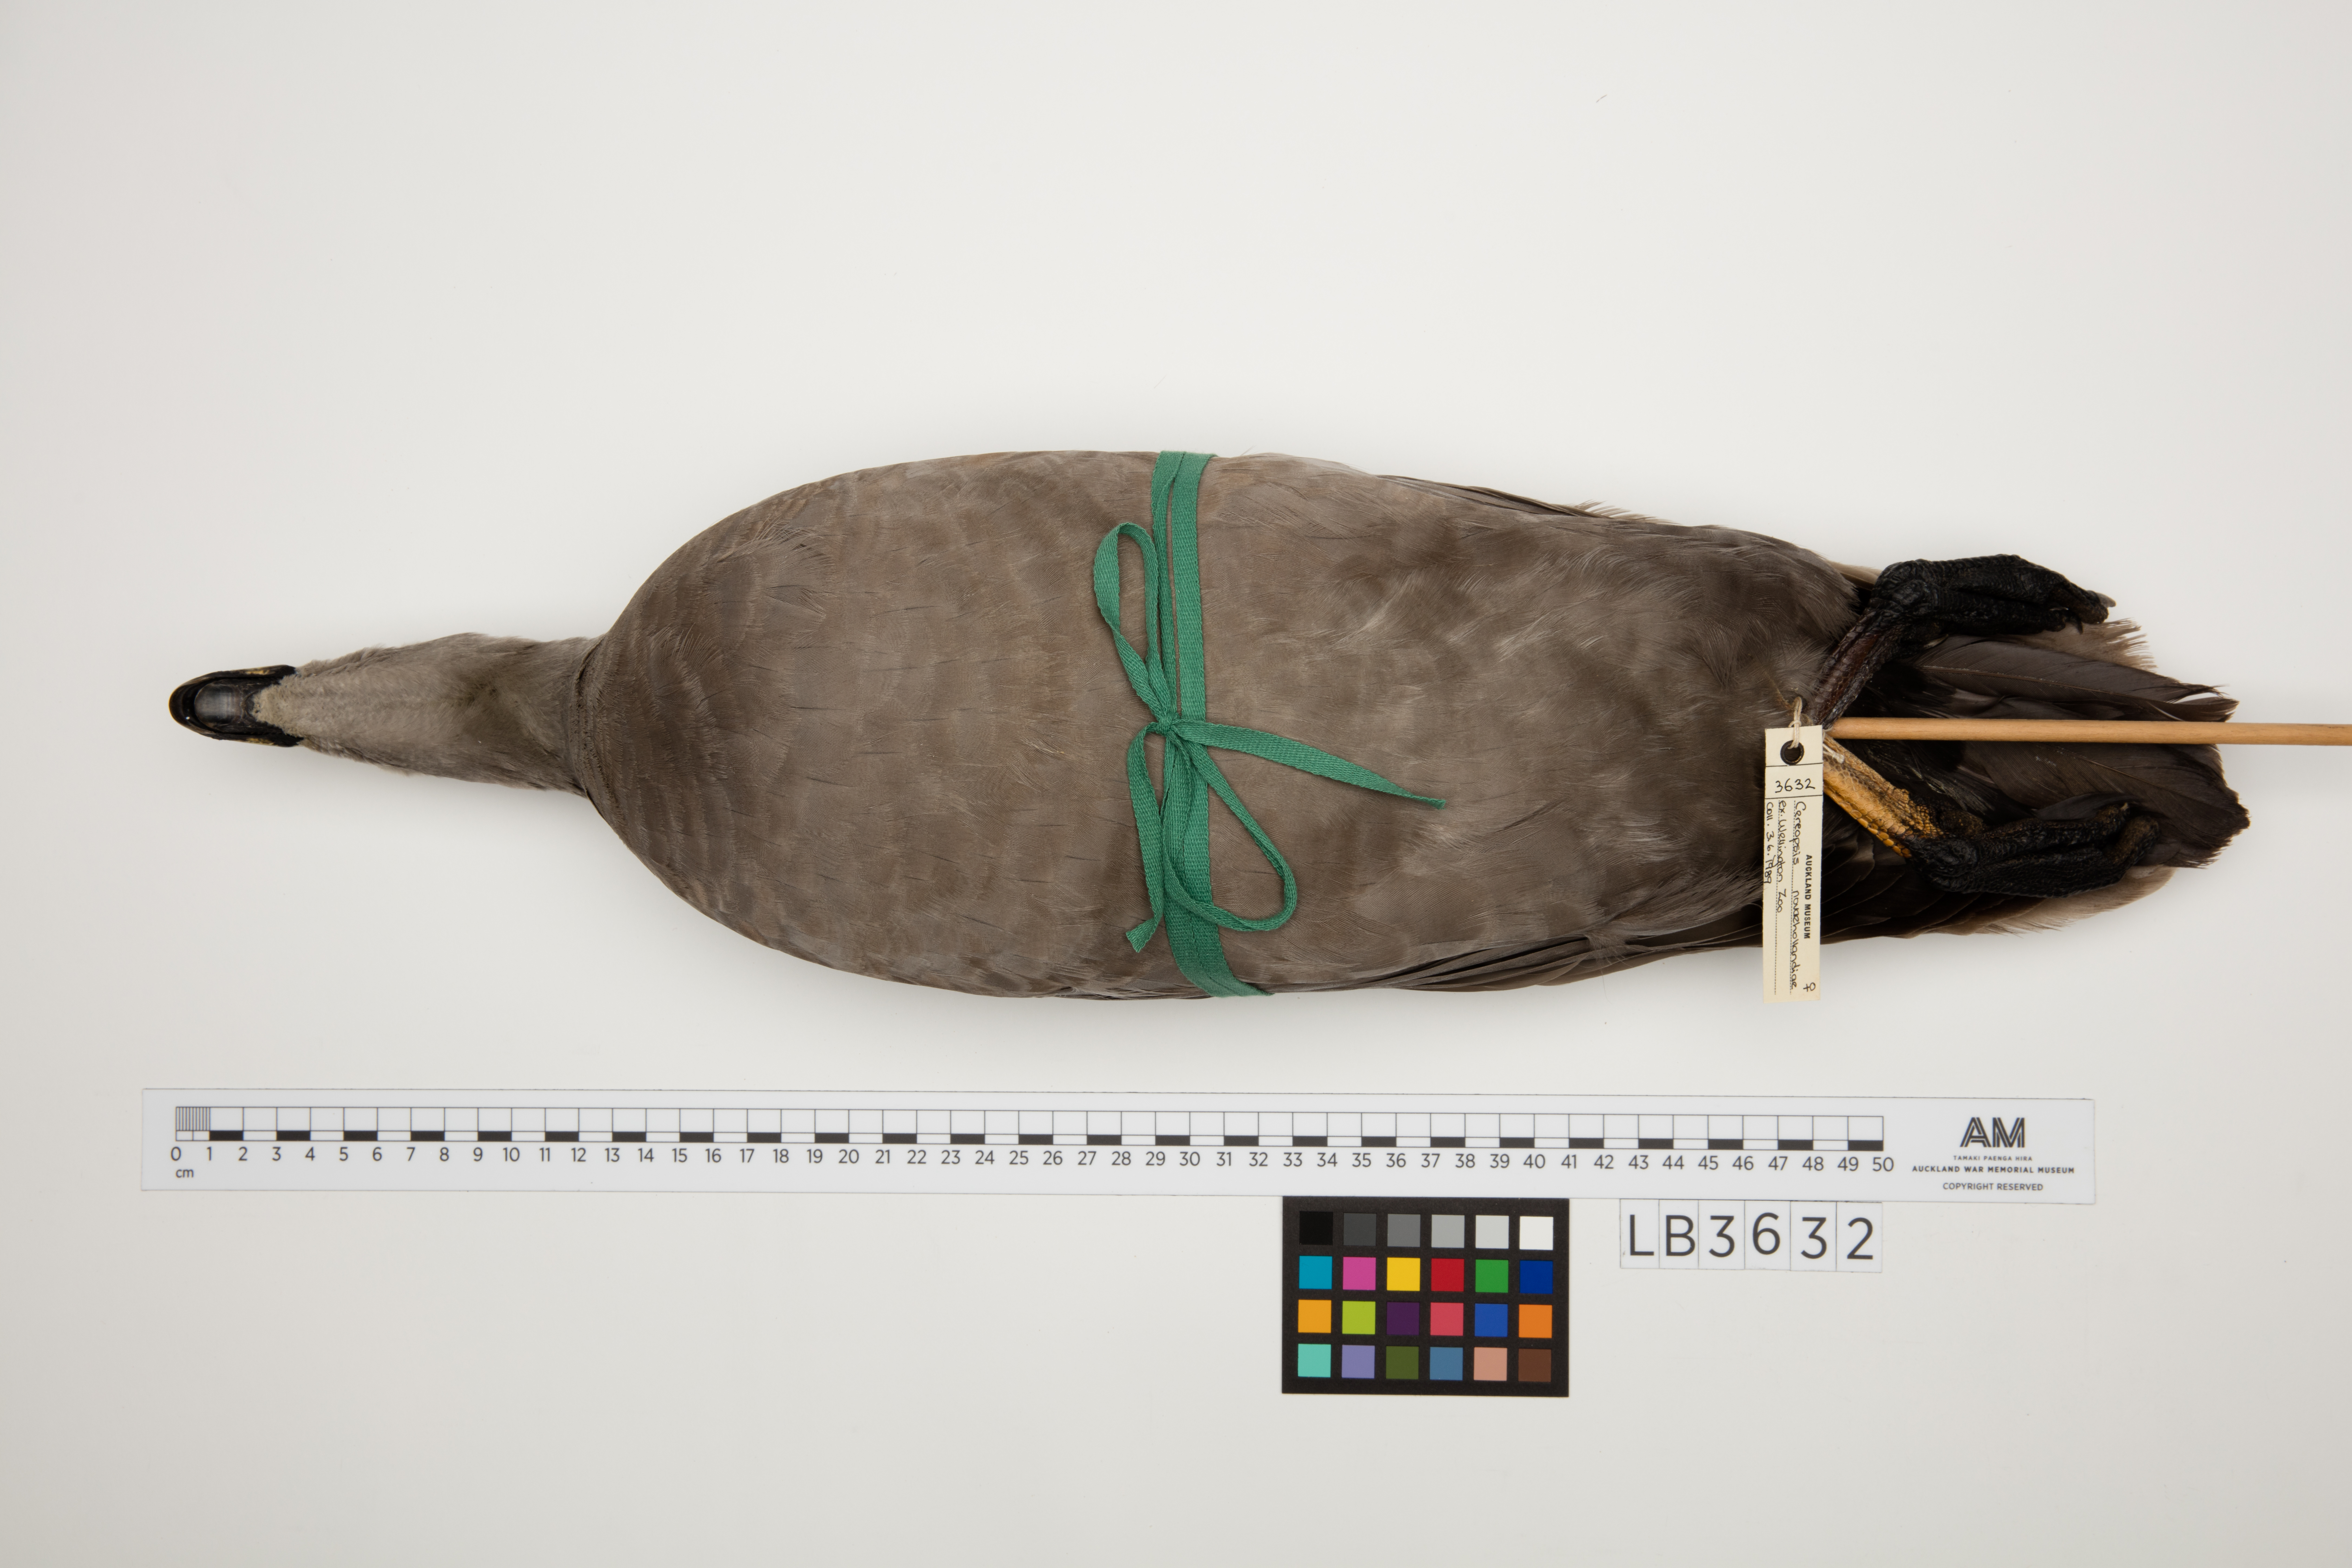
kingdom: Animalia
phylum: Chordata
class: Aves
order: Anseriformes
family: Anatidae
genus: Cereopsis
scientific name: Cereopsis novaehollandiae
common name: Cape barren goose
